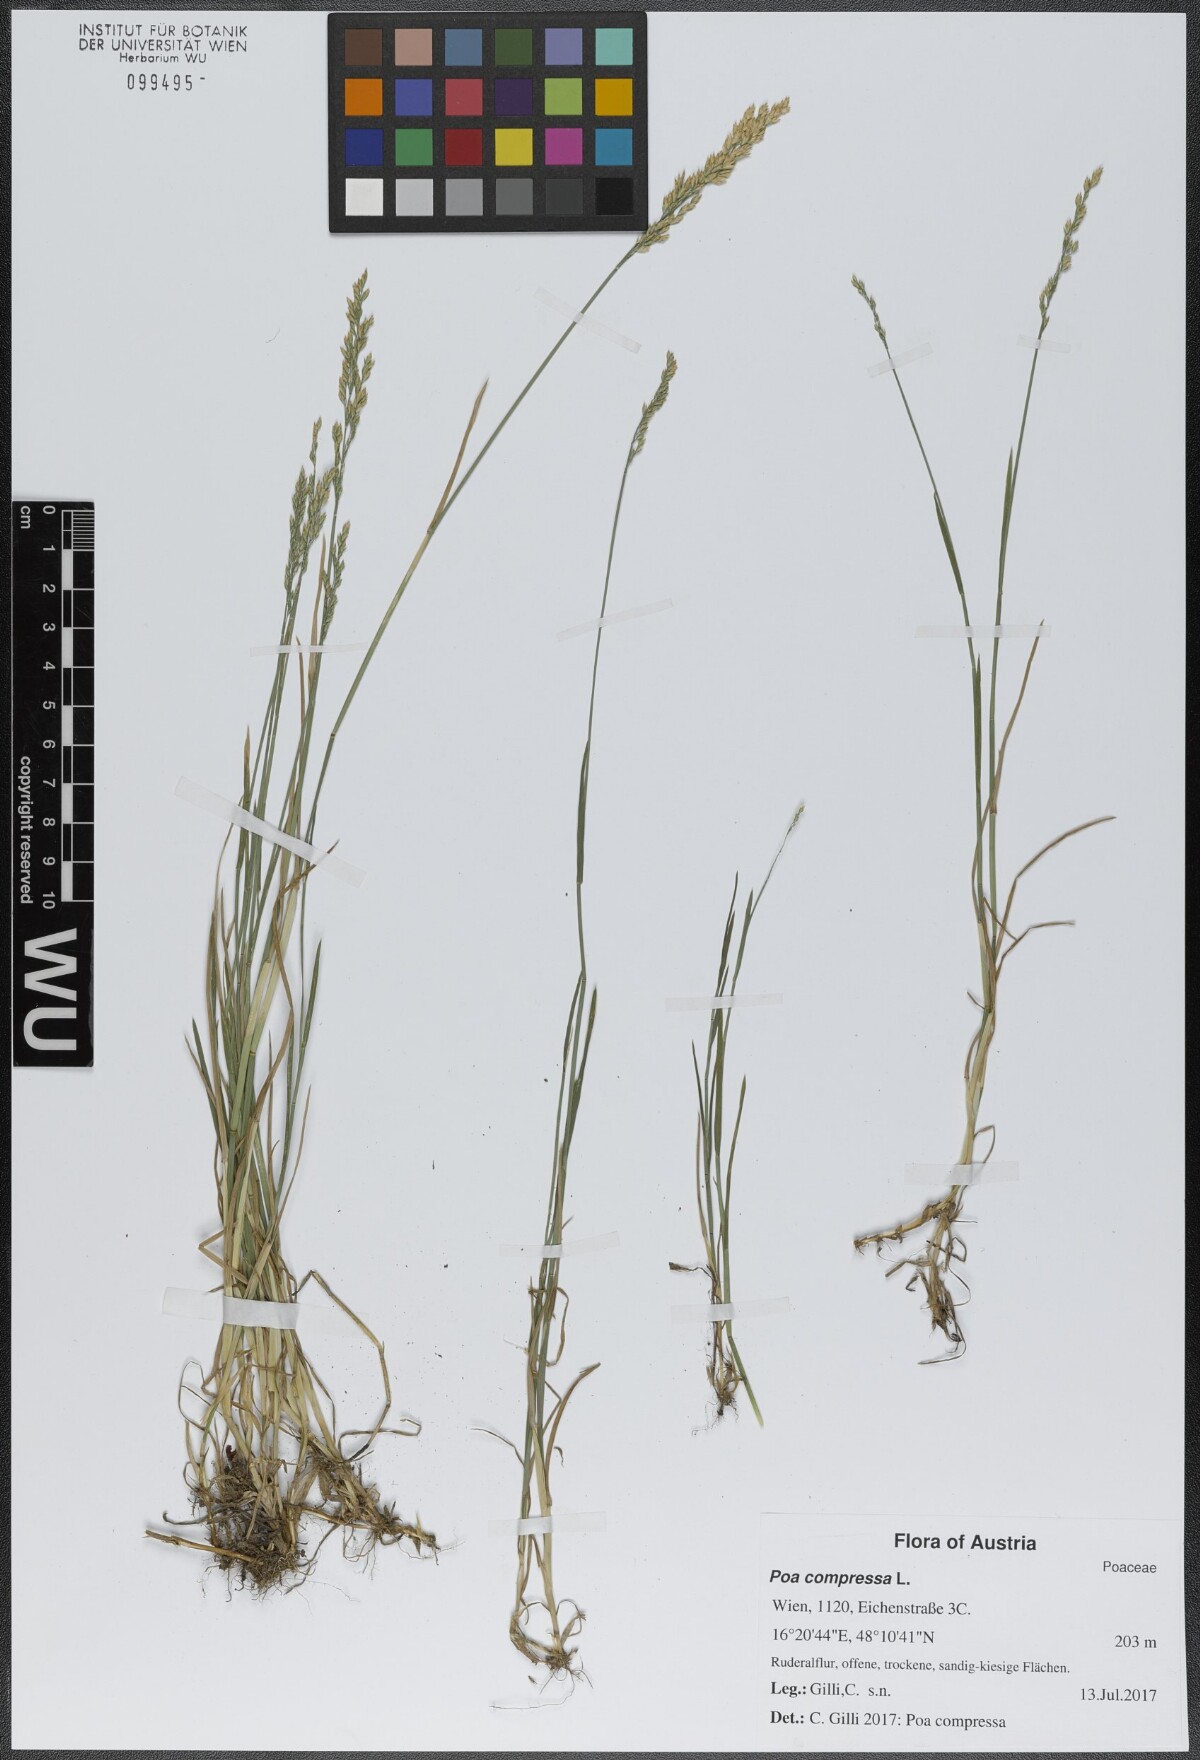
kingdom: Plantae
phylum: Tracheophyta
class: Liliopsida
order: Poales
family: Poaceae
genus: Poa
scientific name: Poa compressa
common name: Canada bluegrass
